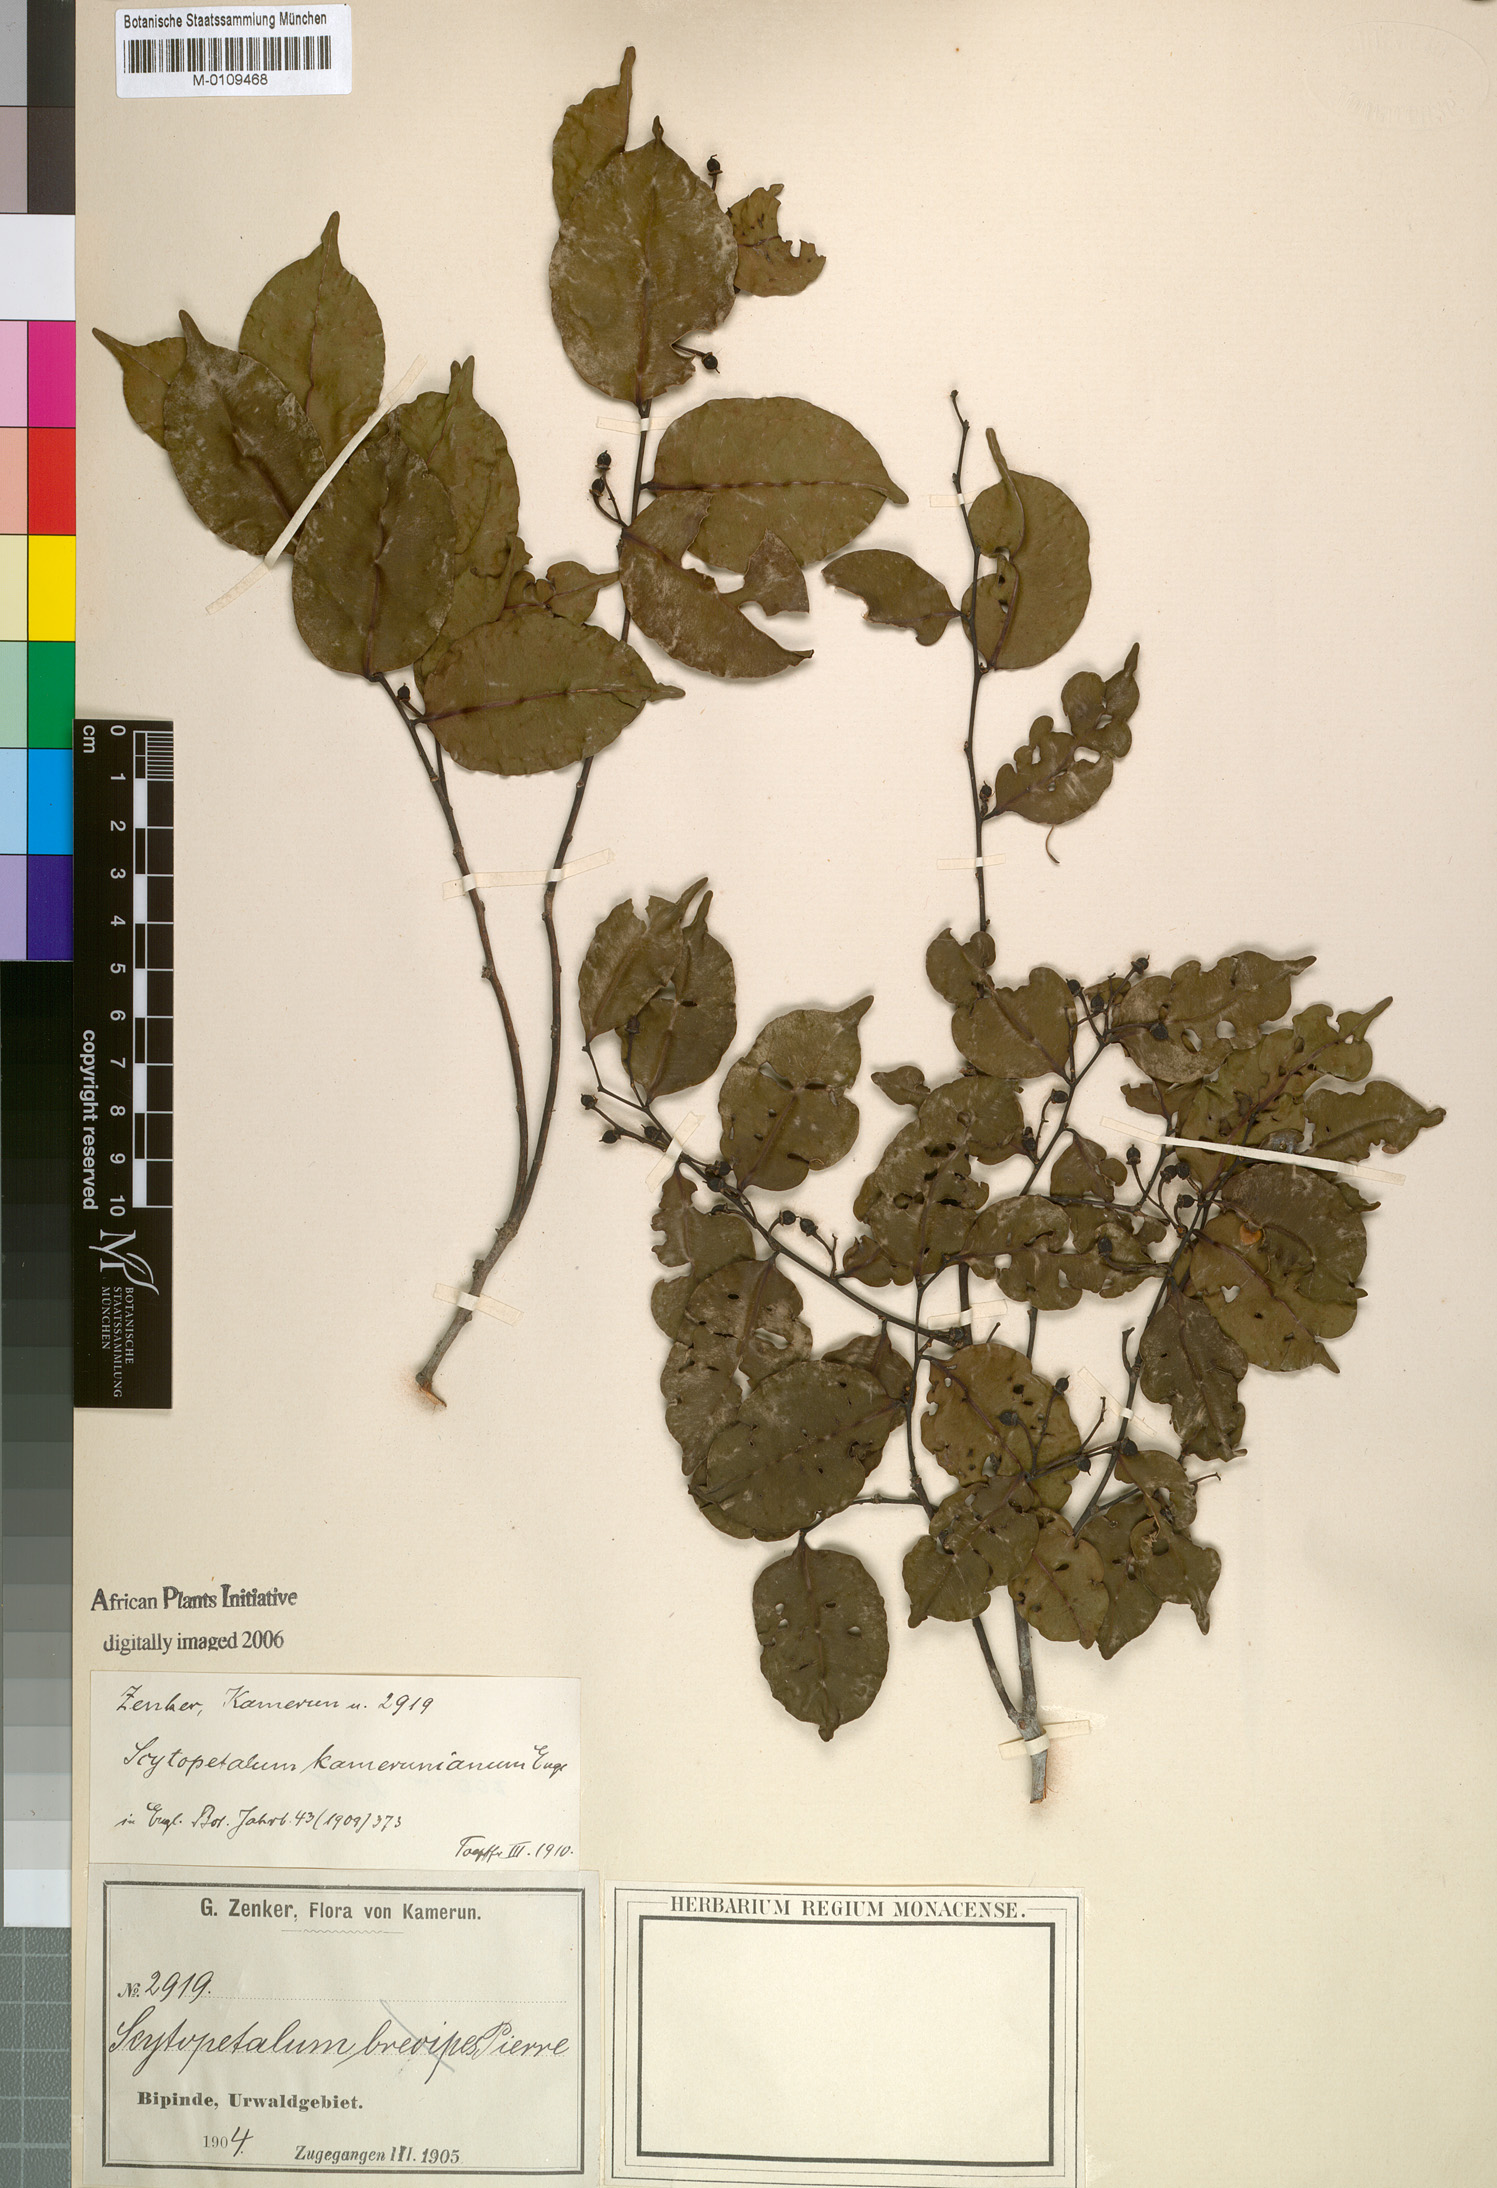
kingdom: Plantae
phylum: Tracheophyta
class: Magnoliopsida
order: Ericales
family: Lecythidaceae
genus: Scytopetalum
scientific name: Scytopetalum kamerunianum
